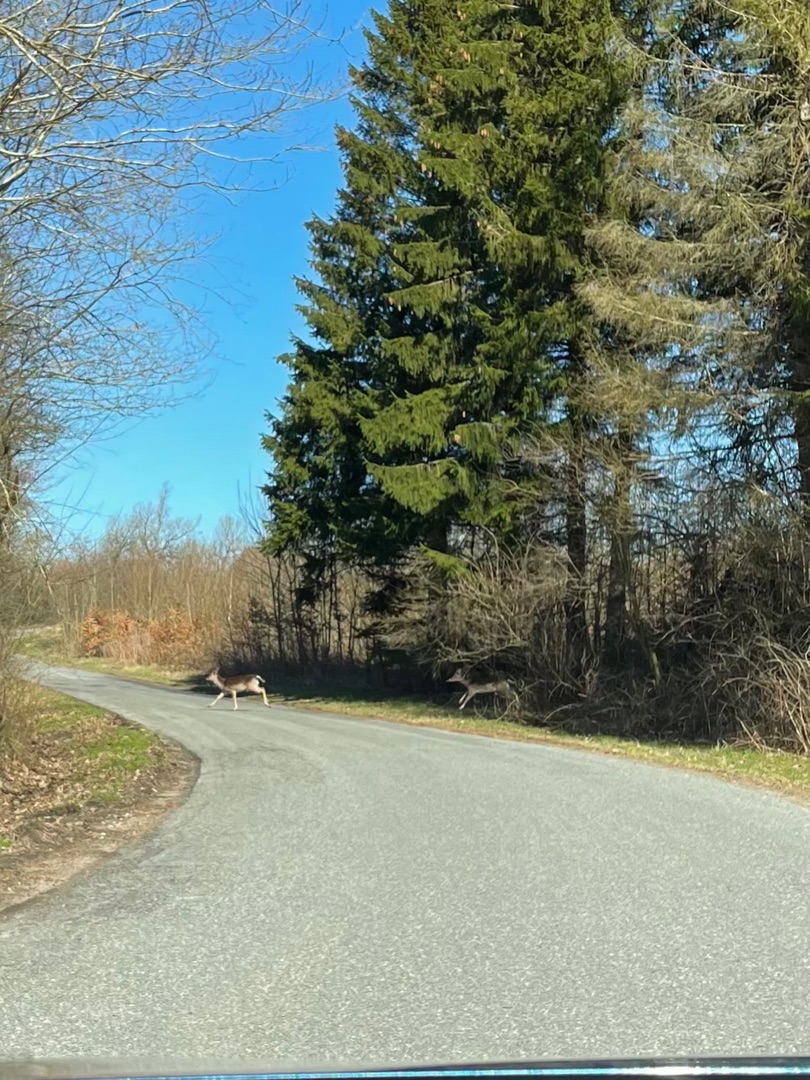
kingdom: Animalia
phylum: Chordata
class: Mammalia
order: Artiodactyla
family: Cervidae
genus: Dama
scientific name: Dama dama
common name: Dådyr
